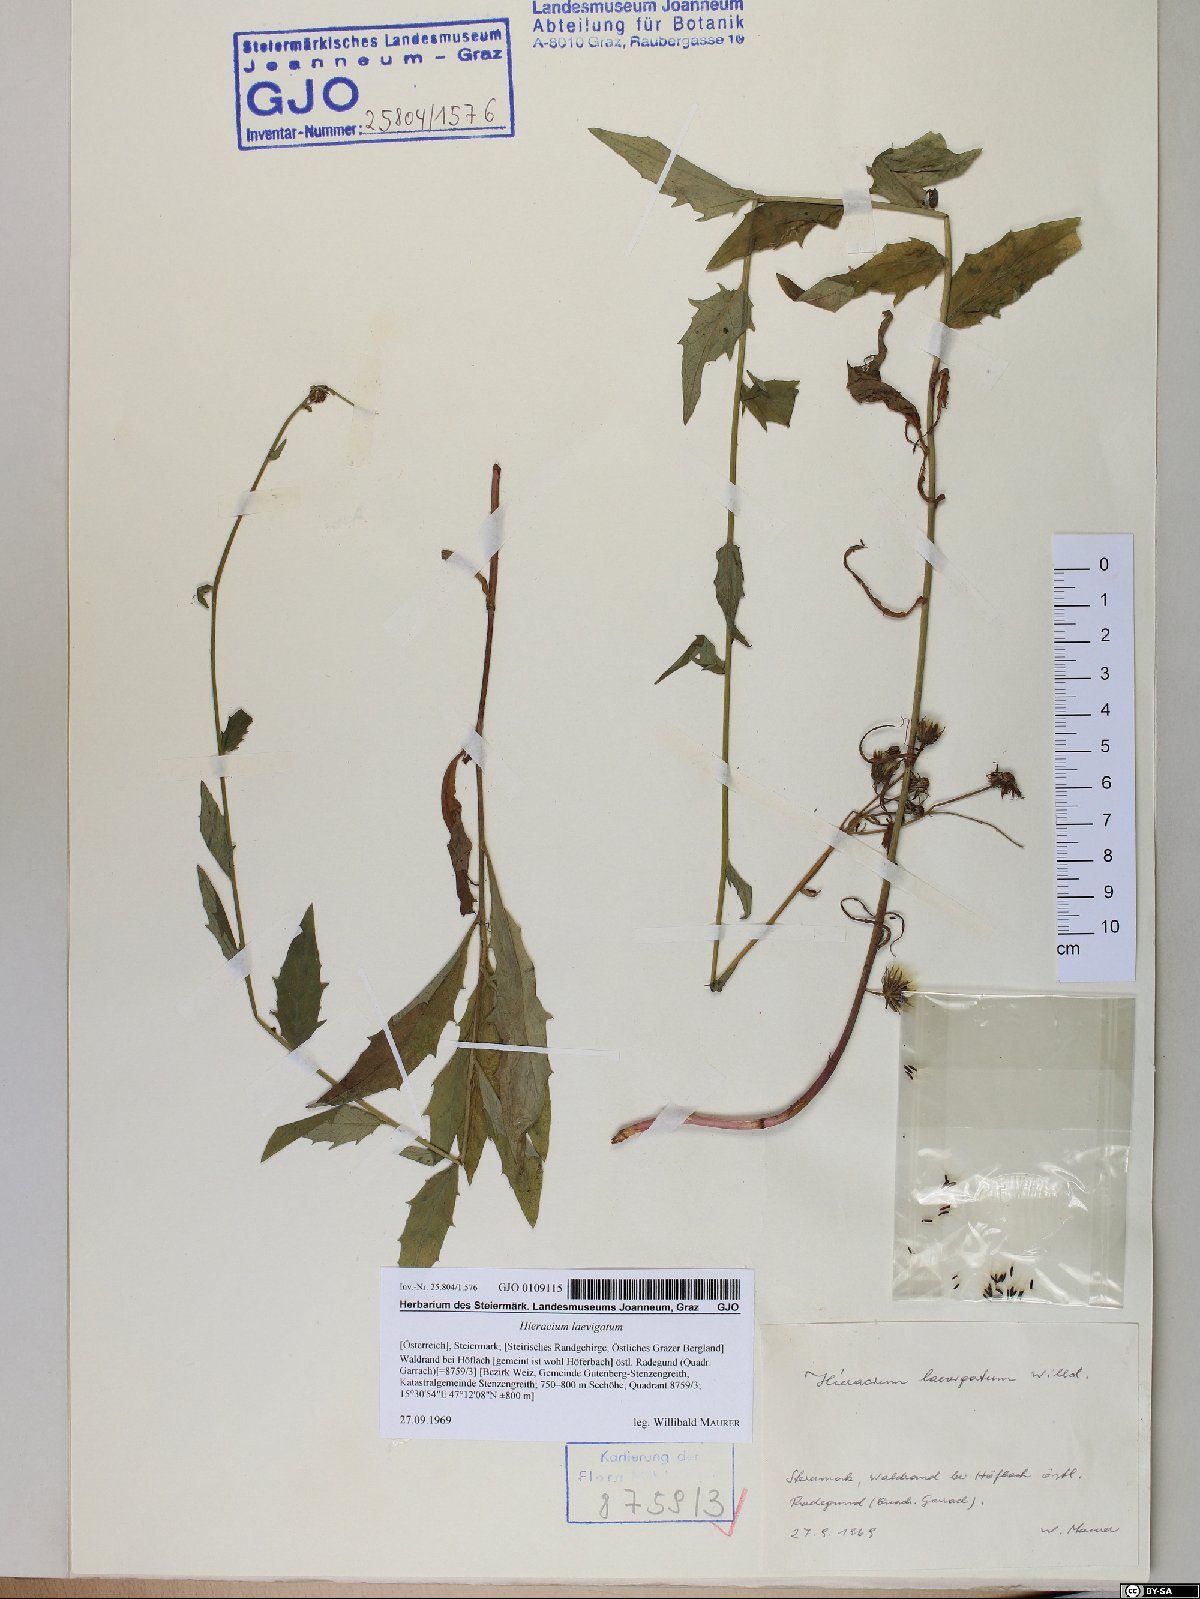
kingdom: Plantae
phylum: Tracheophyta
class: Magnoliopsida
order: Asterales
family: Asteraceae
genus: Hieracium
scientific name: Hieracium laevigatum
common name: Smooth hawkweed
